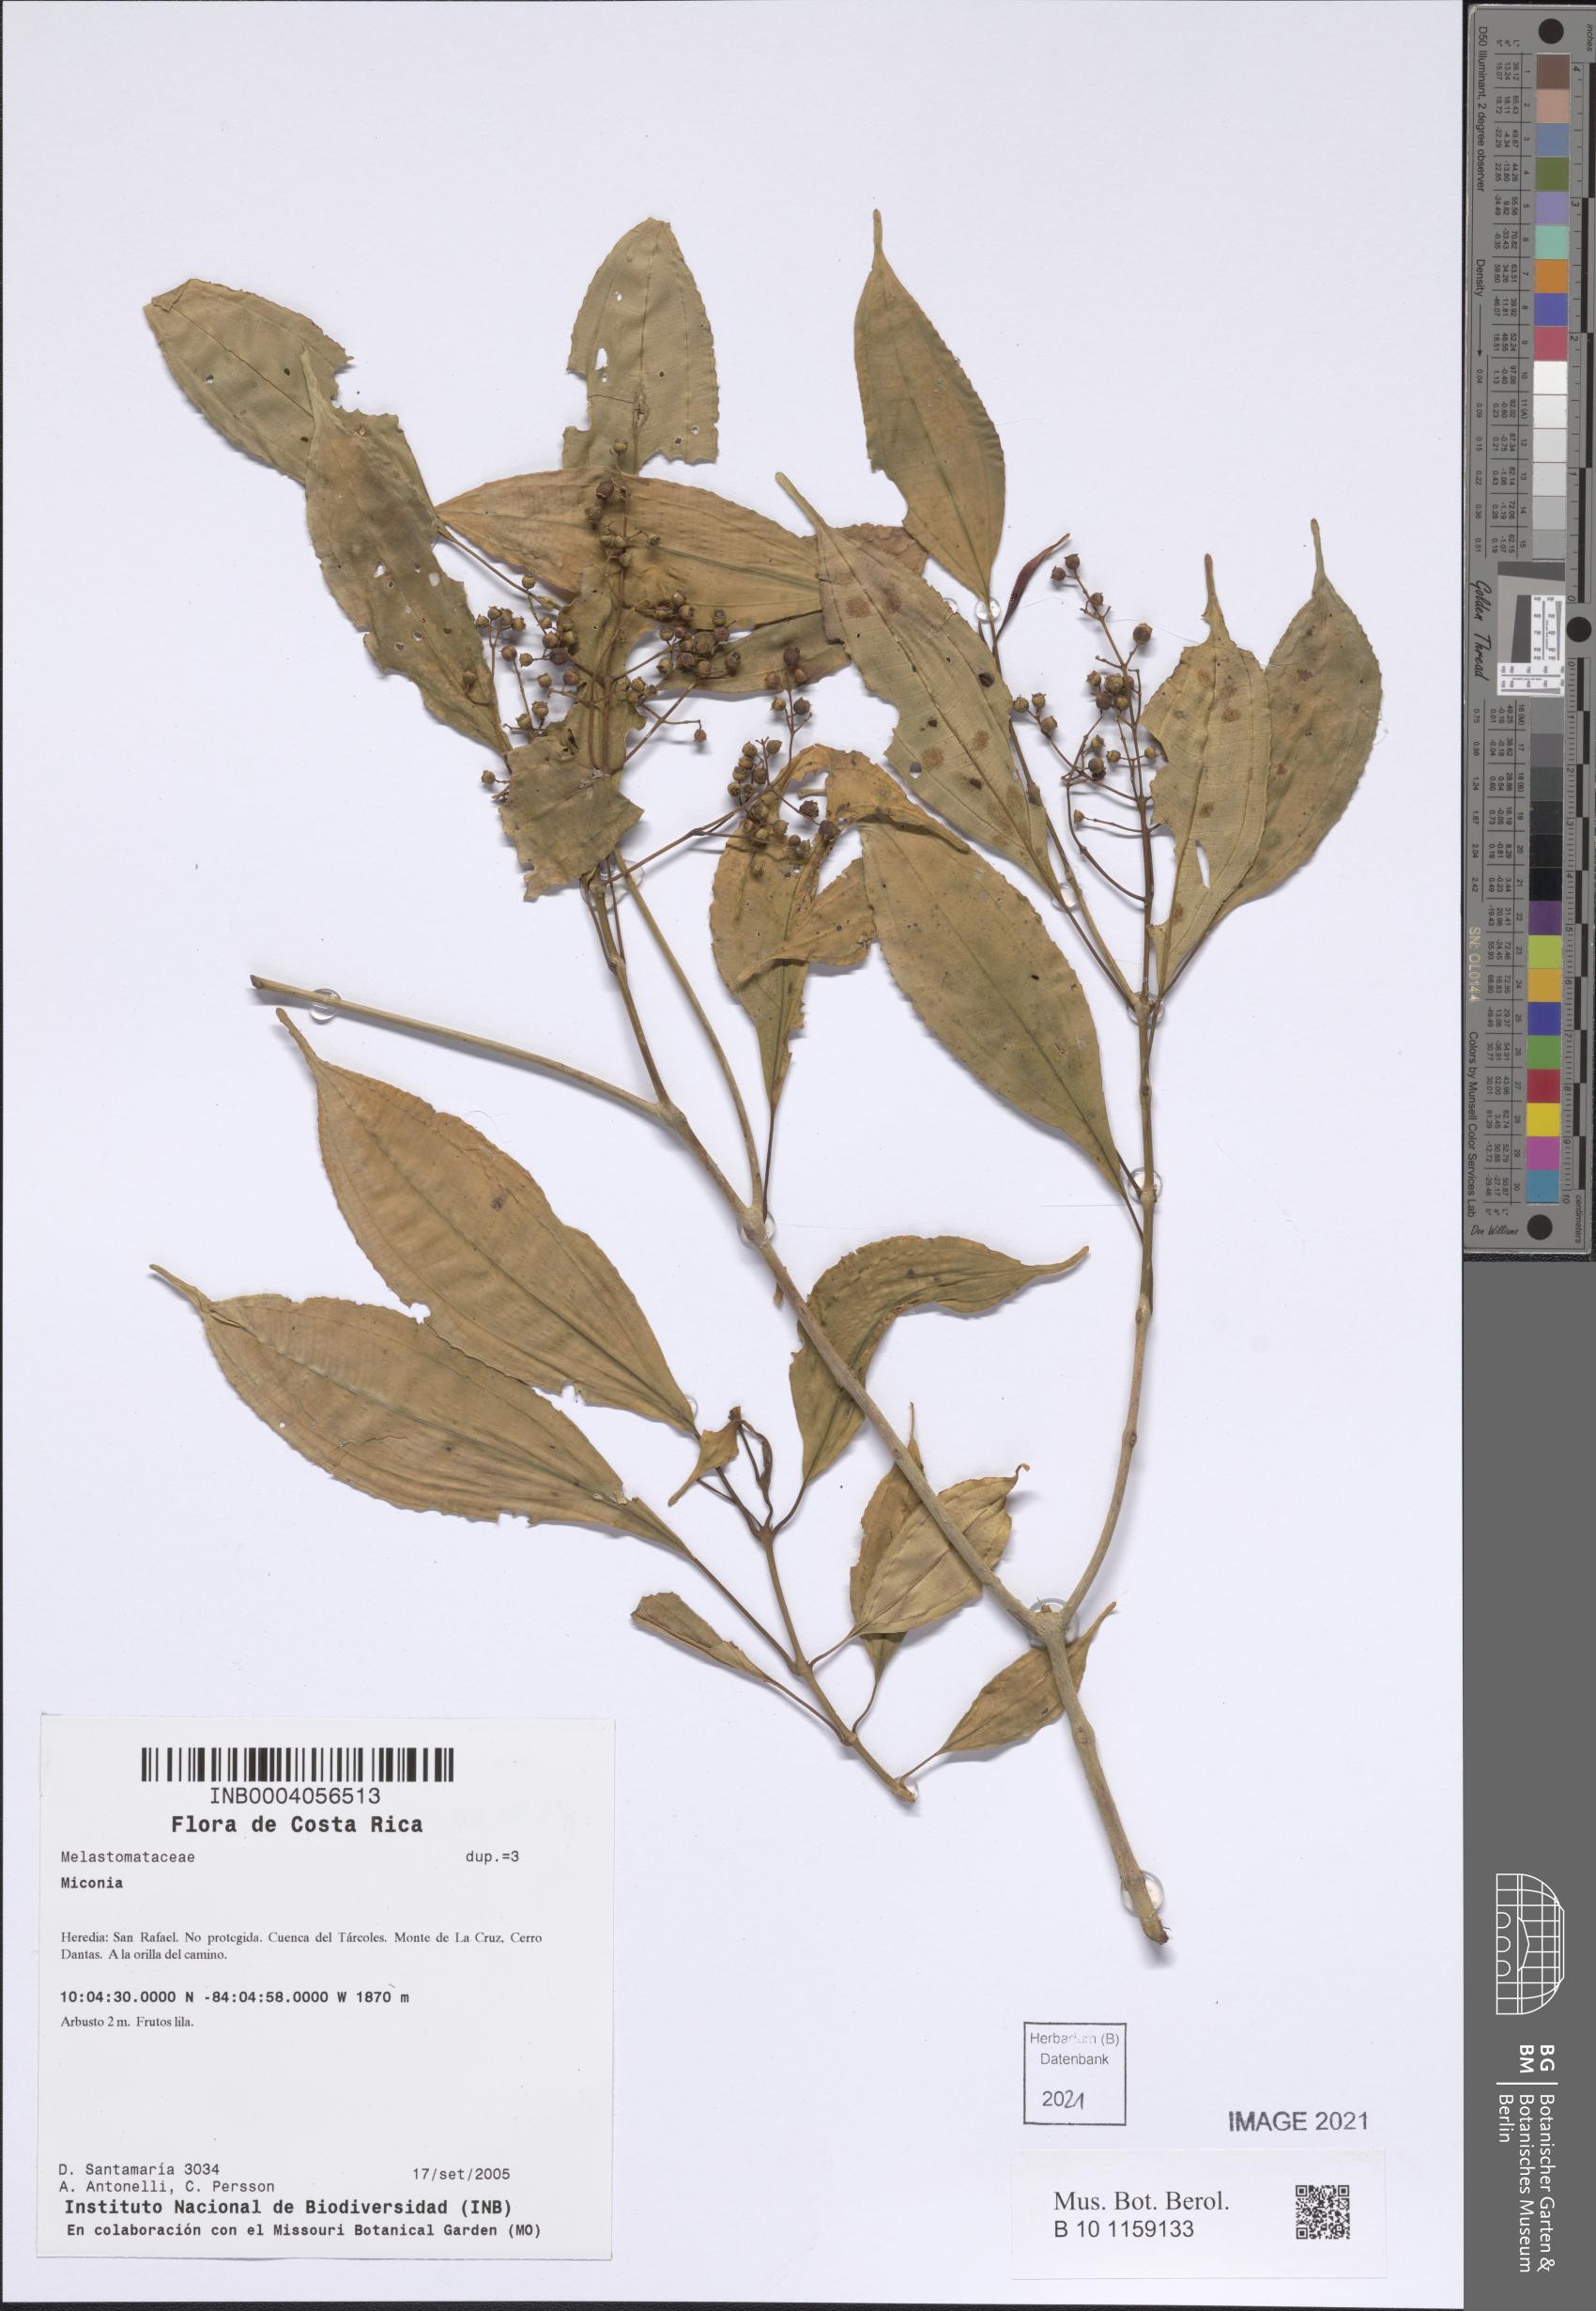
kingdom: Plantae
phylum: Tracheophyta
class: Magnoliopsida
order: Myrtales
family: Melastomataceae
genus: Miconia
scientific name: Miconia
